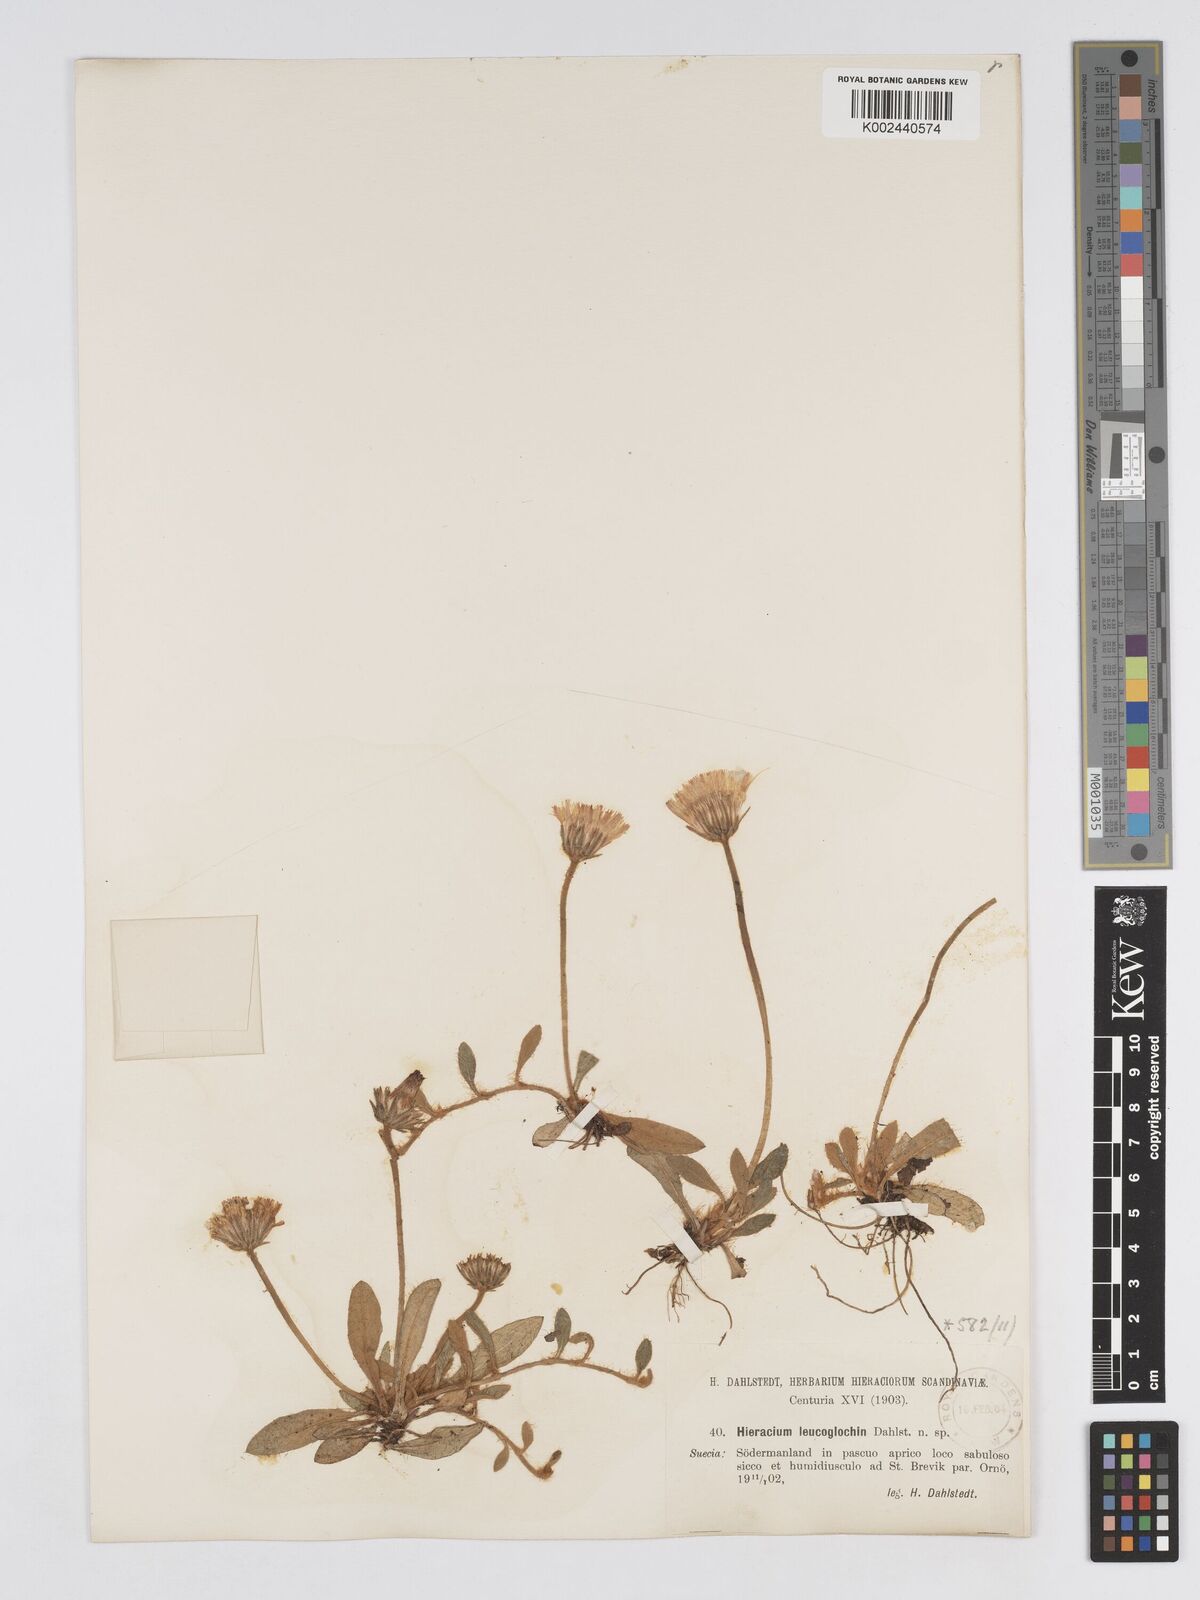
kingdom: Plantae
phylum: Tracheophyta
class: Magnoliopsida
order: Asterales
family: Asteraceae
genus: Pilosella
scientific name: Pilosella longisquama
